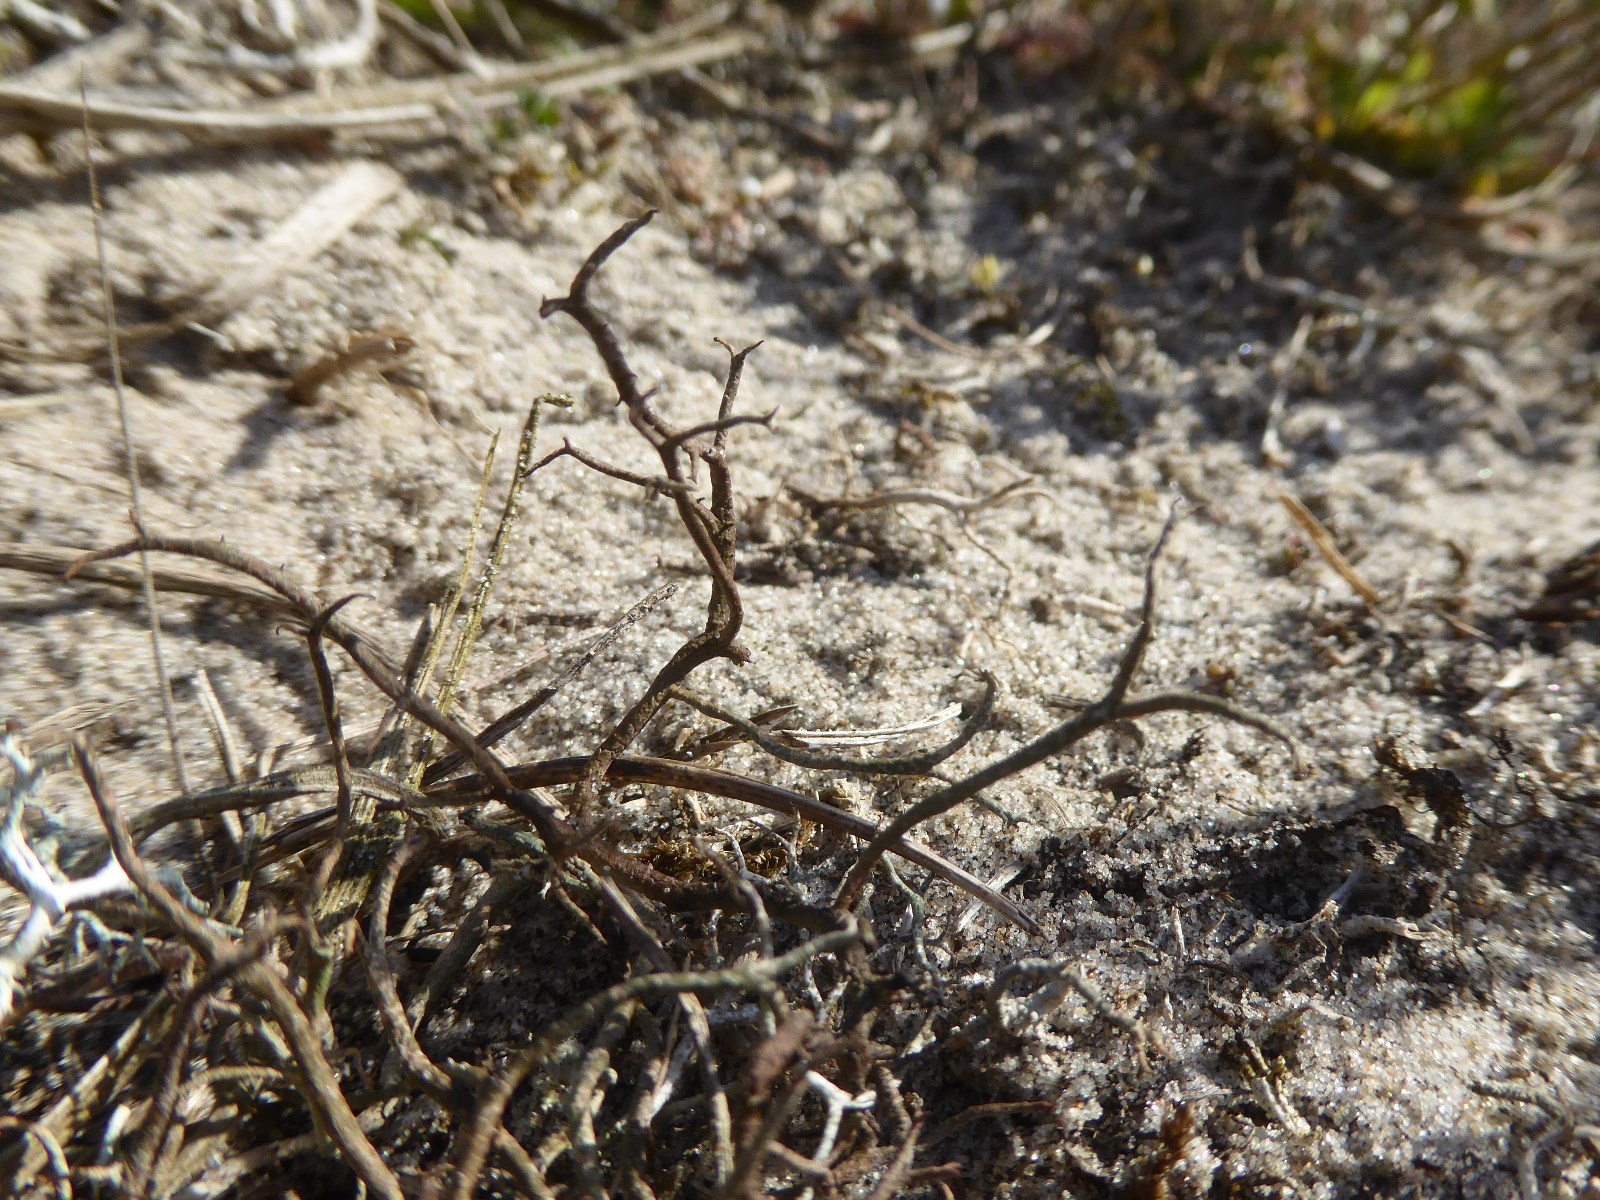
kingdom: Fungi
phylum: Ascomycota
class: Lecanoromycetes
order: Lecanorales
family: Cladoniaceae
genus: Cladonia
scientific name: Cladonia furcata
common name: kløftet bægerlav
